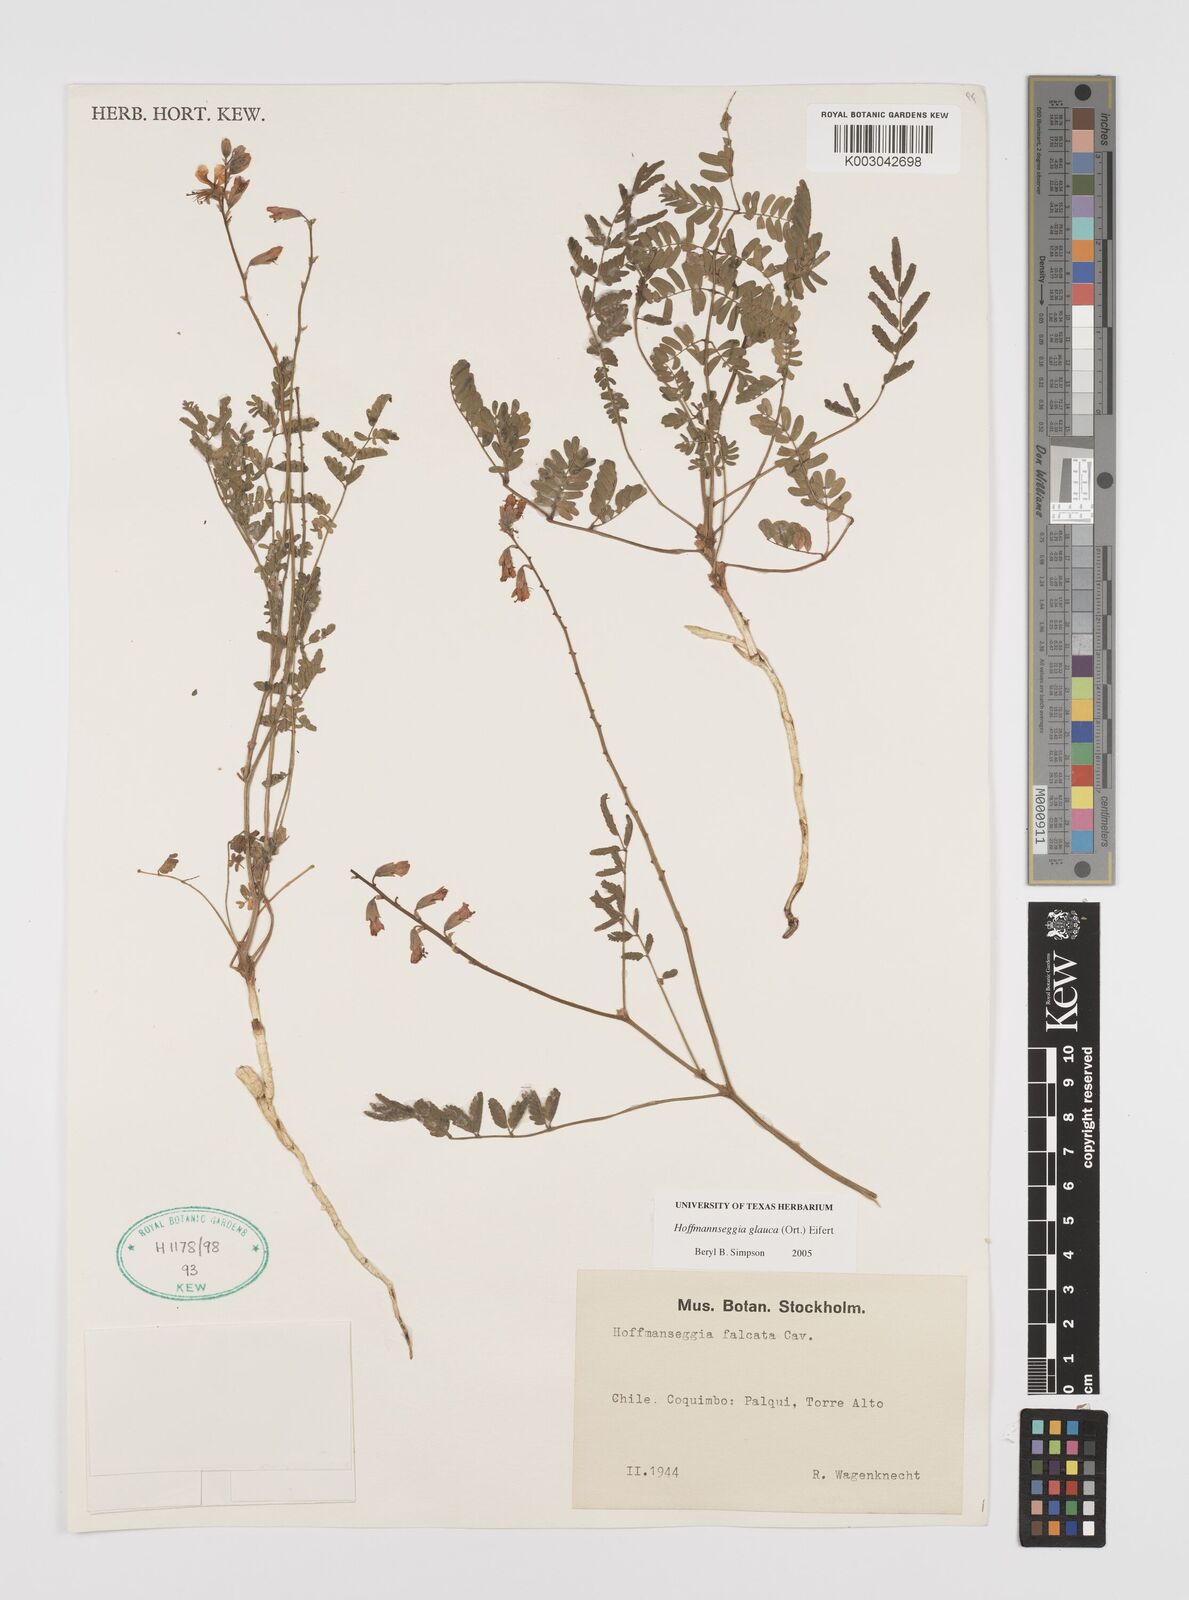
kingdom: Plantae
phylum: Tracheophyta
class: Magnoliopsida
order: Fabales
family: Fabaceae
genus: Hoffmannseggia
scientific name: Hoffmannseggia glauca
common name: Pignut
